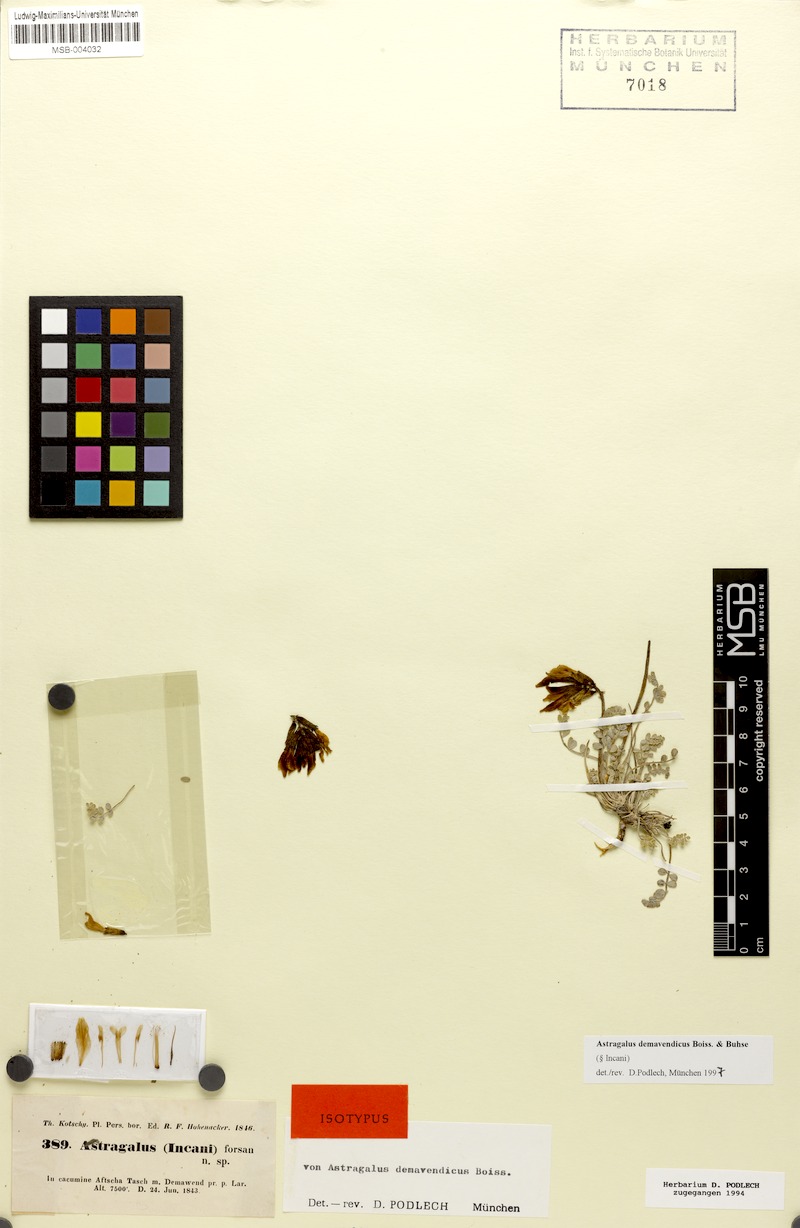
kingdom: Plantae
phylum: Tracheophyta
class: Magnoliopsida
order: Fabales
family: Fabaceae
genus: Astragalus
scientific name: Astragalus demavendicus
